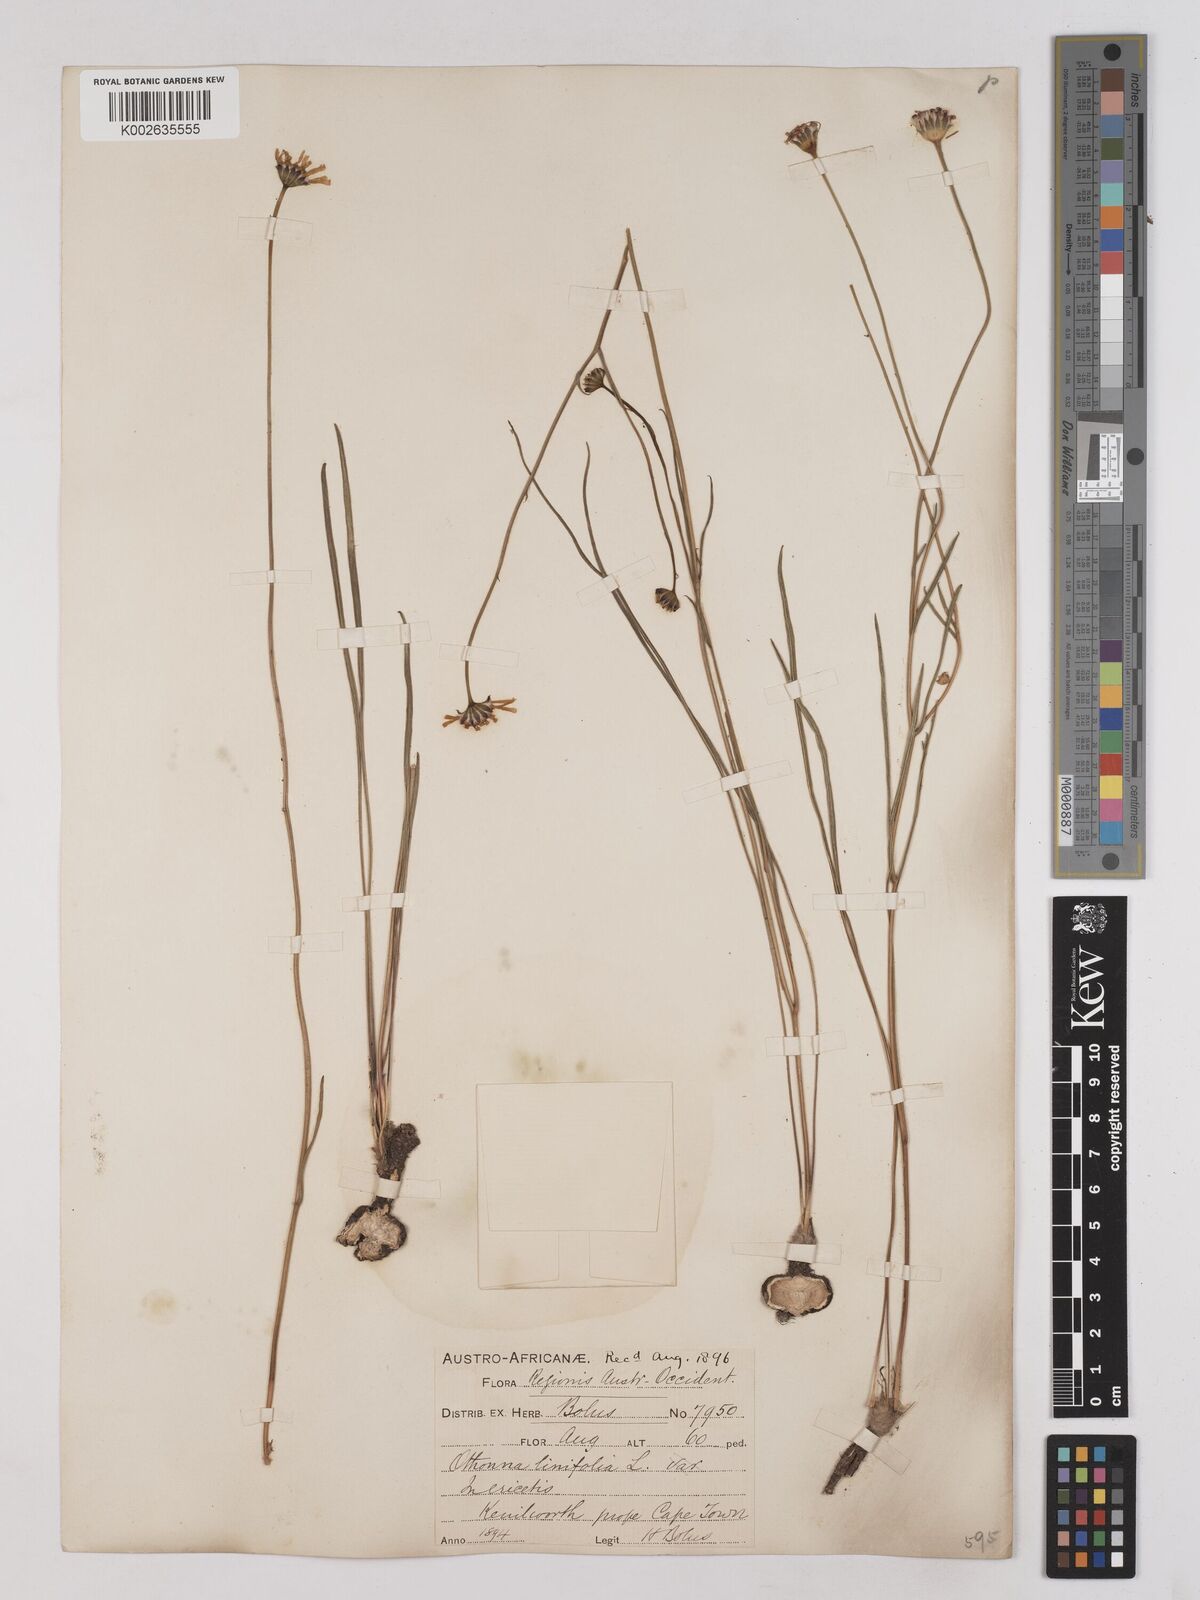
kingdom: Plantae
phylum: Tracheophyta
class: Magnoliopsida
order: Asterales
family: Asteraceae
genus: Othonna
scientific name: Othonna stenophylla
